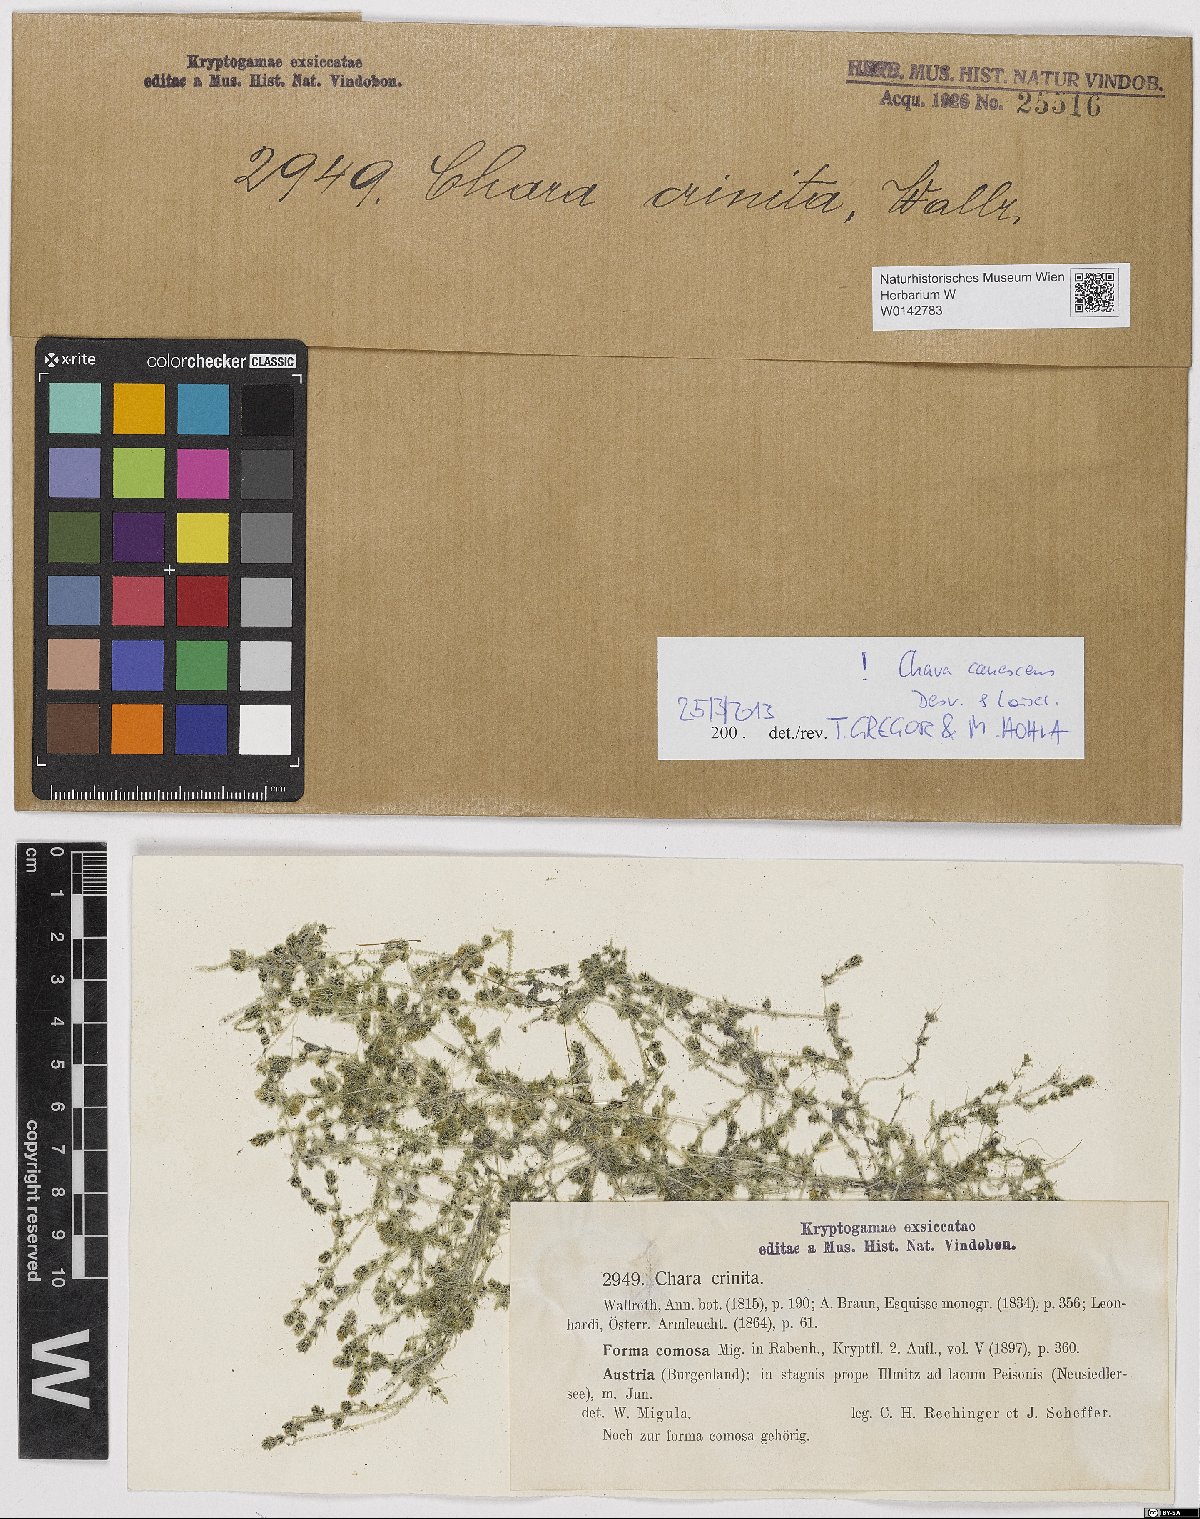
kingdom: Plantae
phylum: Charophyta
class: Charophyceae
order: Charales
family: Characeae
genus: Chara
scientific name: Chara canescens
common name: Bearded stonewort
